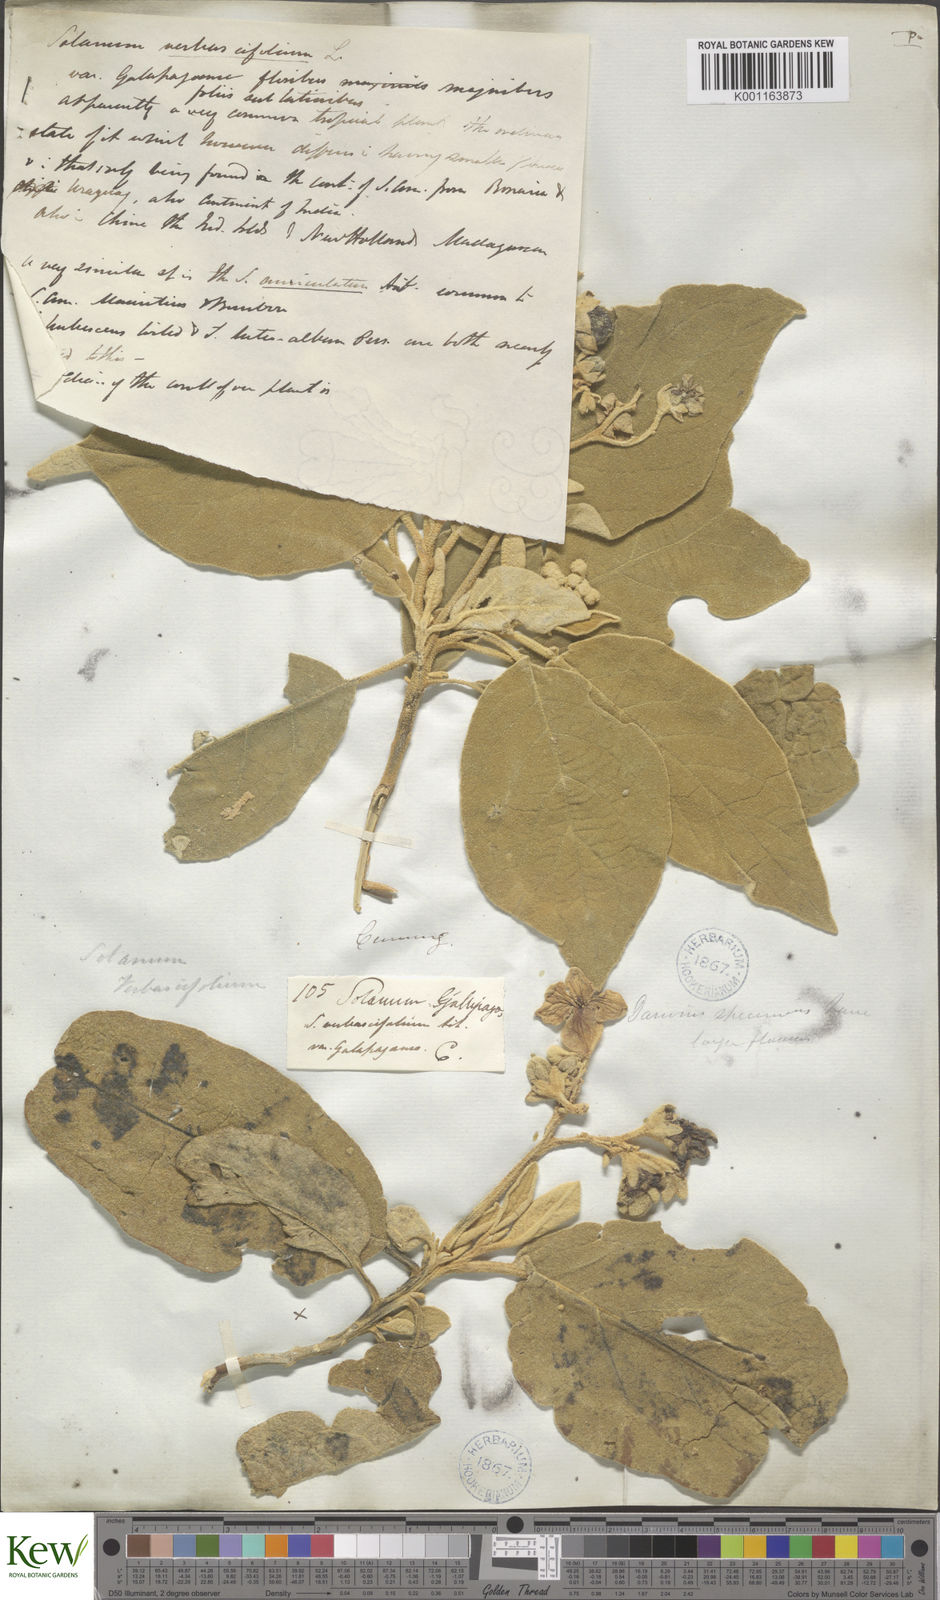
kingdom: Plantae
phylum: Tracheophyta
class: Magnoliopsida
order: Solanales
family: Solanaceae
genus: Solanum
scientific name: Solanum erianthum
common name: Tobacco-tree
